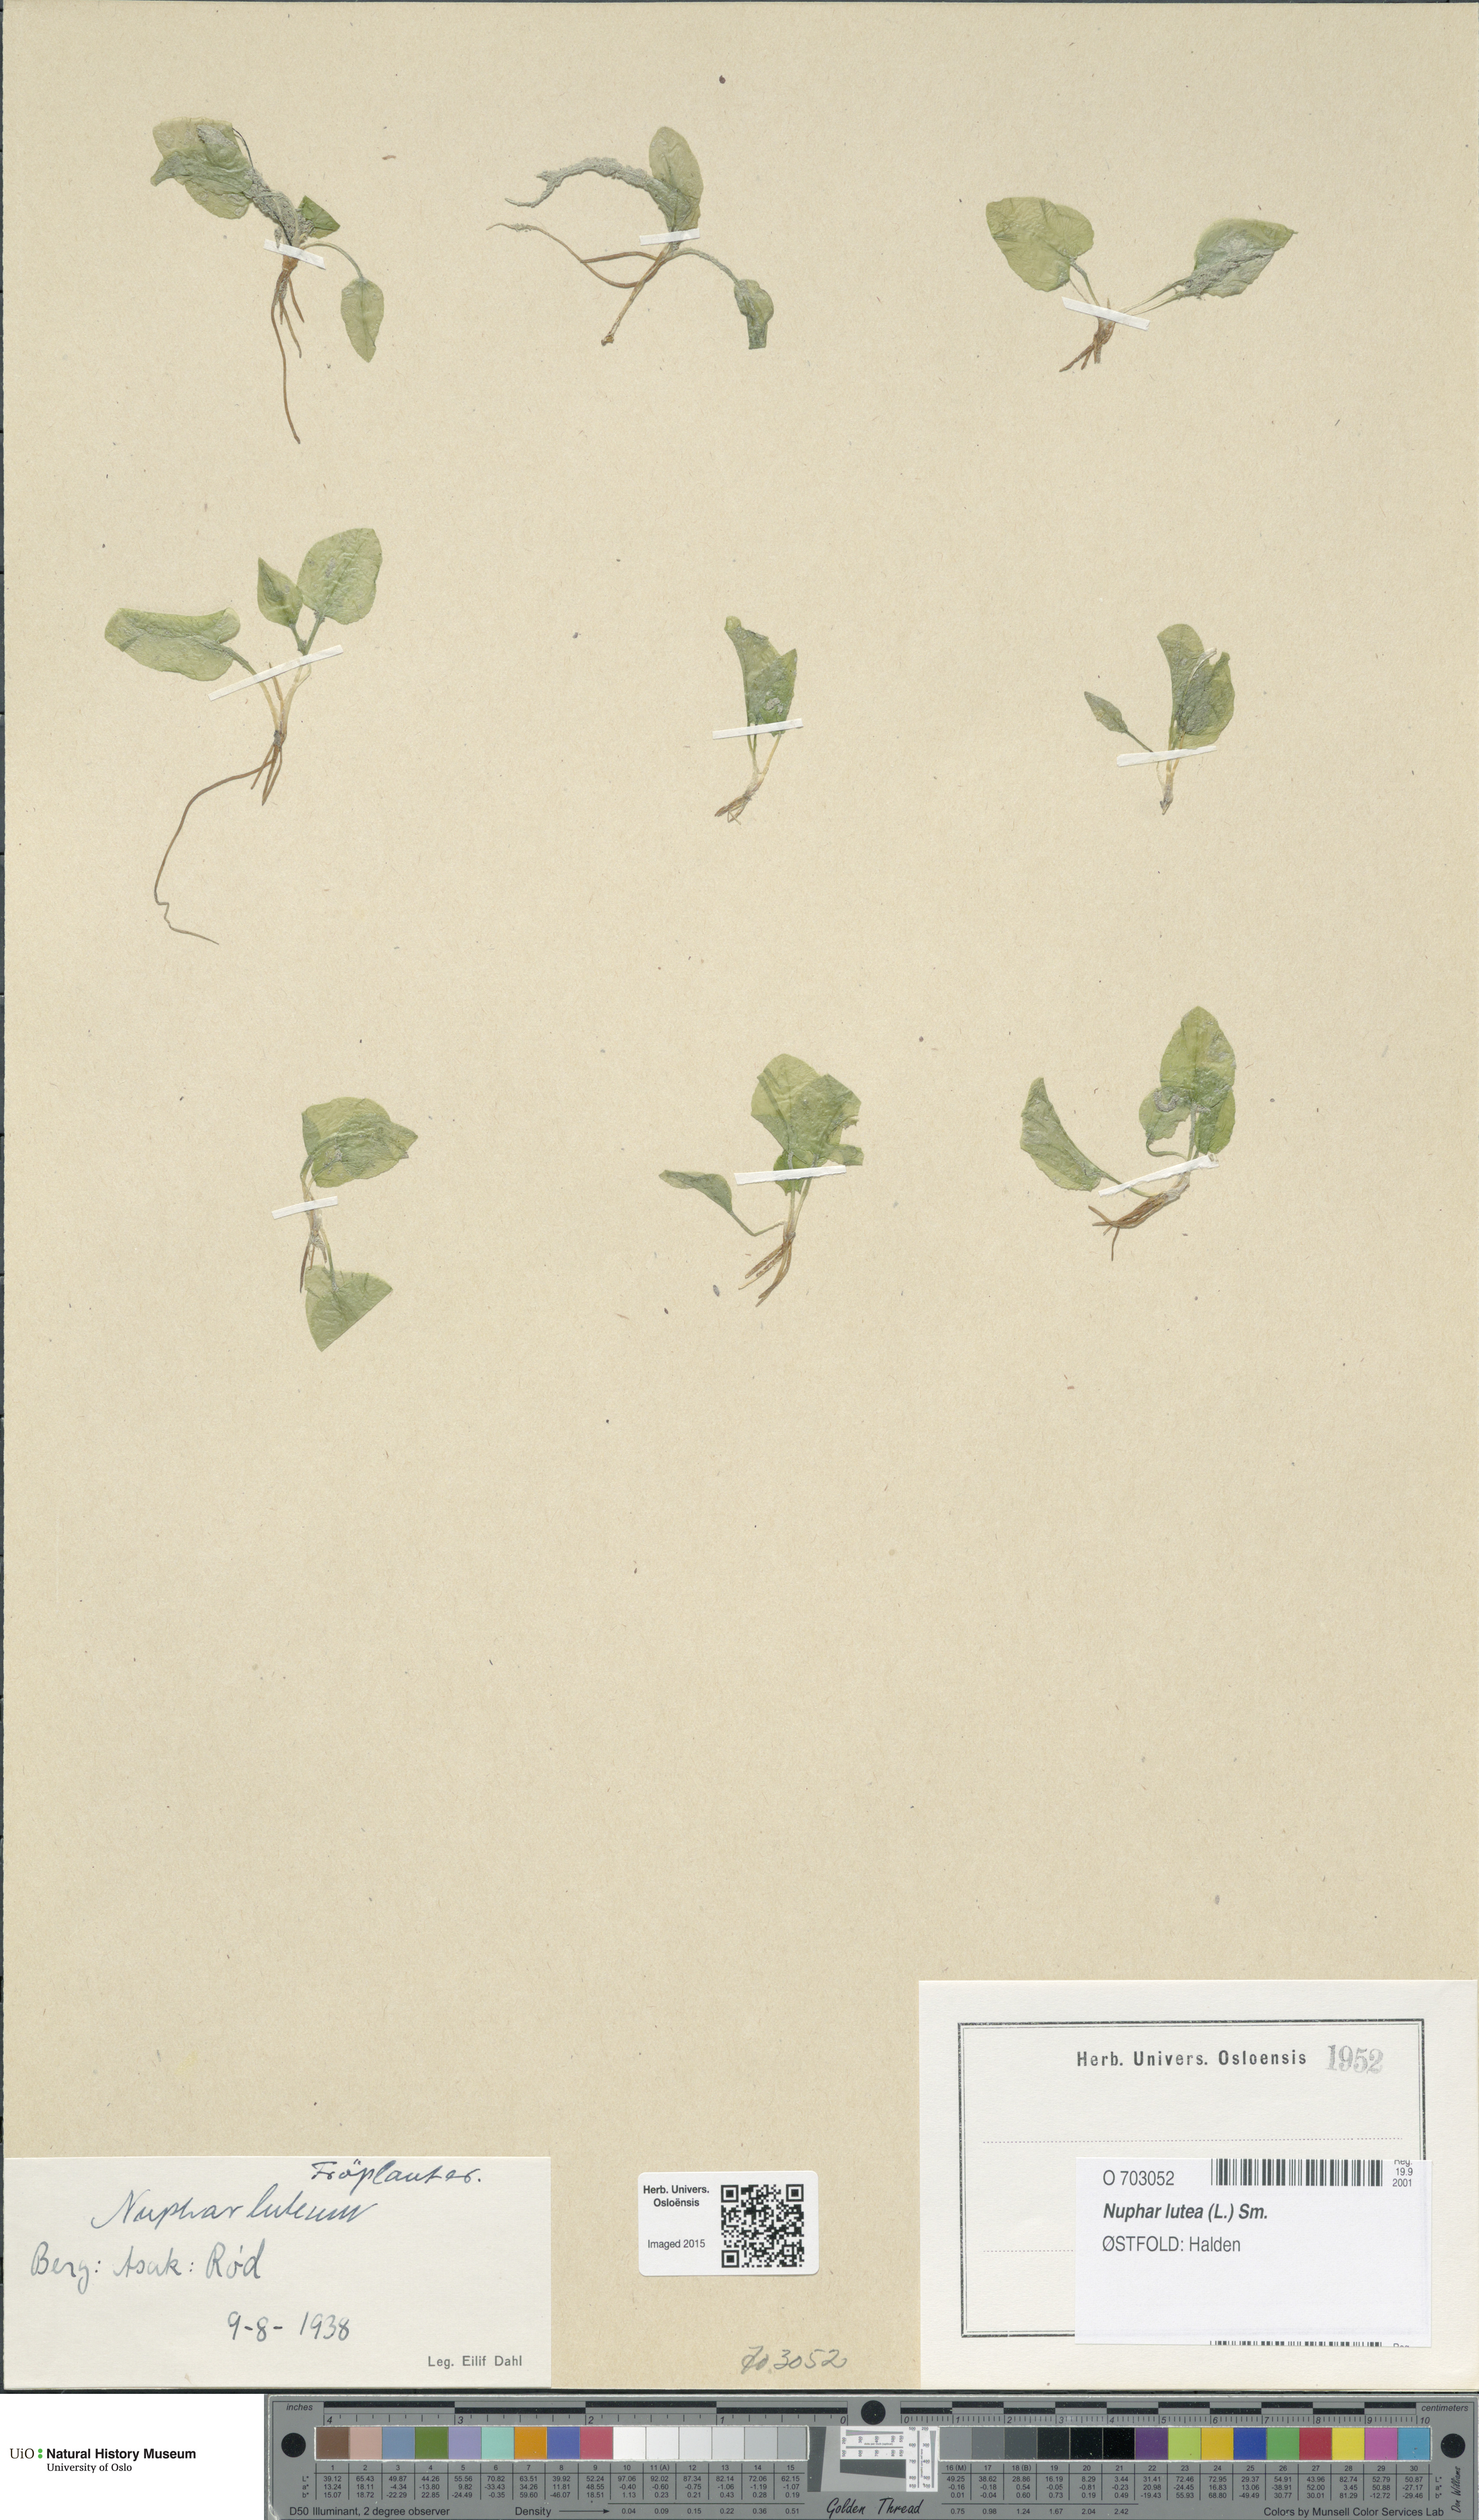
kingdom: Plantae
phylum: Tracheophyta
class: Magnoliopsida
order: Nymphaeales
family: Nymphaeaceae
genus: Nuphar
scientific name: Nuphar lutea
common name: Yellow water-lily
